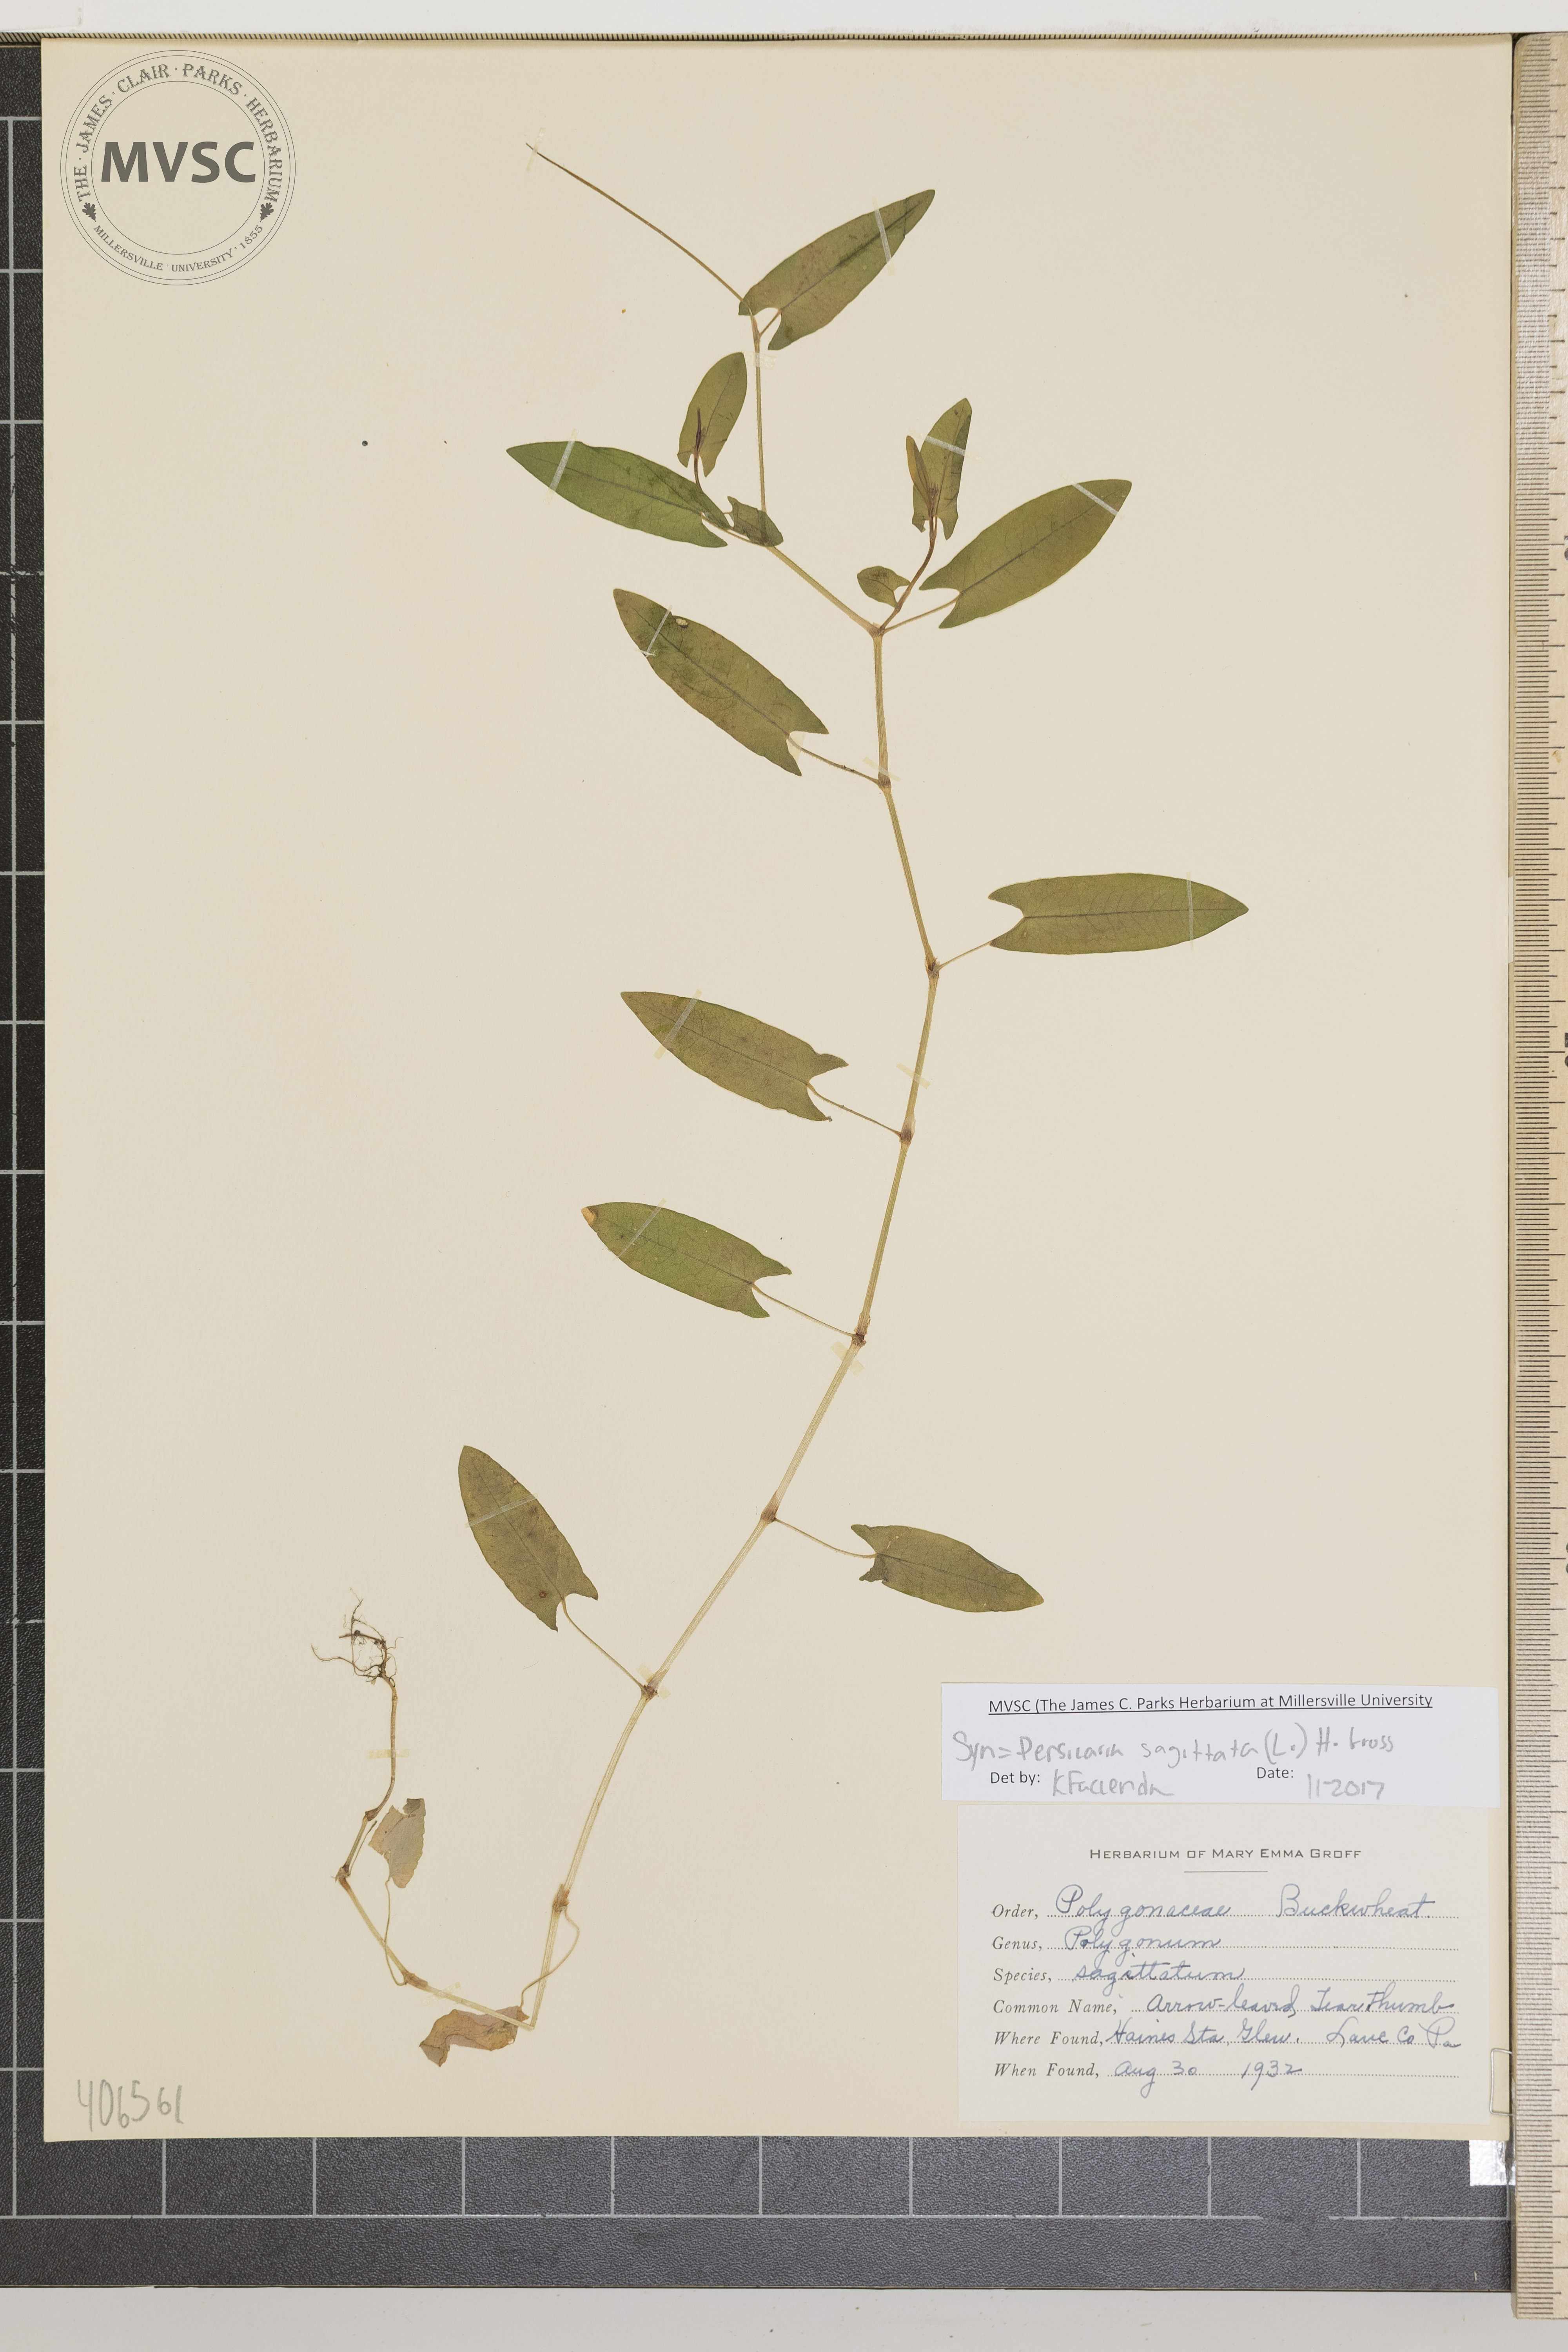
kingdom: Plantae
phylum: Tracheophyta
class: Magnoliopsida
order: Caryophyllales
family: Polygonaceae
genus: Persicaria
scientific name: Persicaria sagittata
